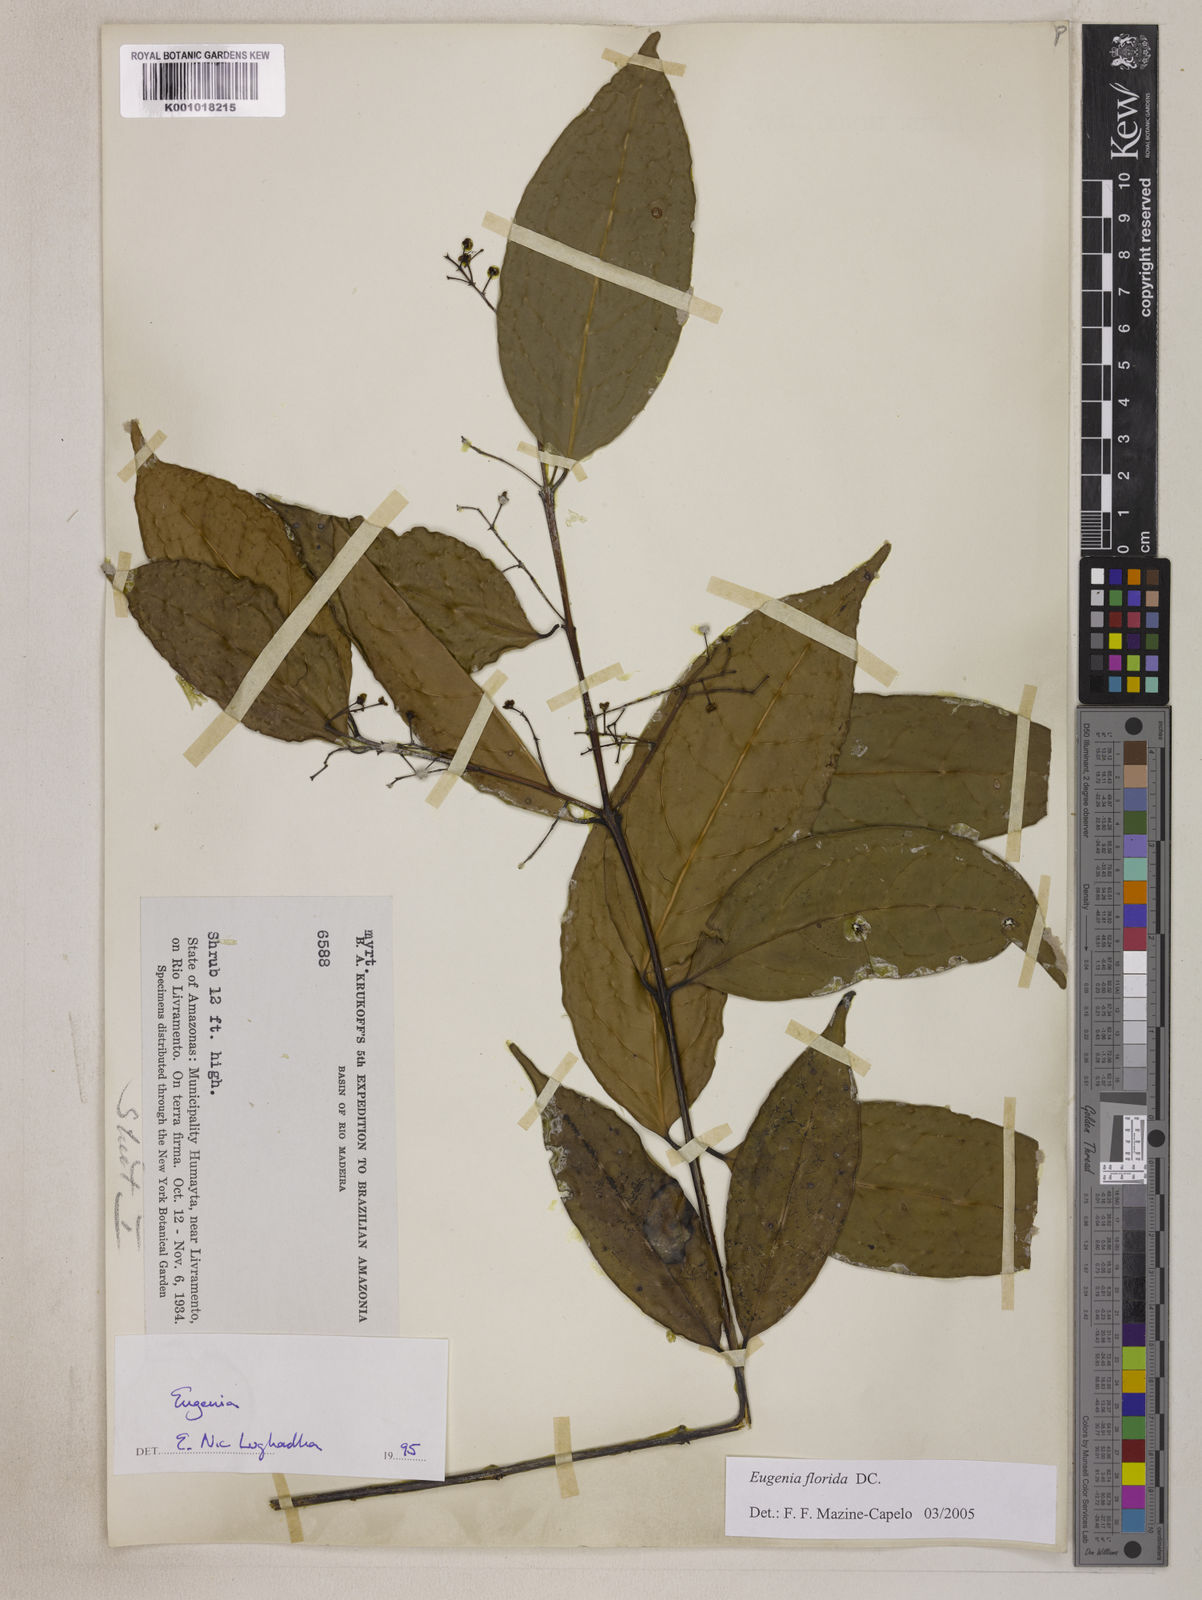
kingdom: Plantae
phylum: Tracheophyta
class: Magnoliopsida
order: Myrtales
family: Myrtaceae
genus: Eugenia
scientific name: Eugenia florida
